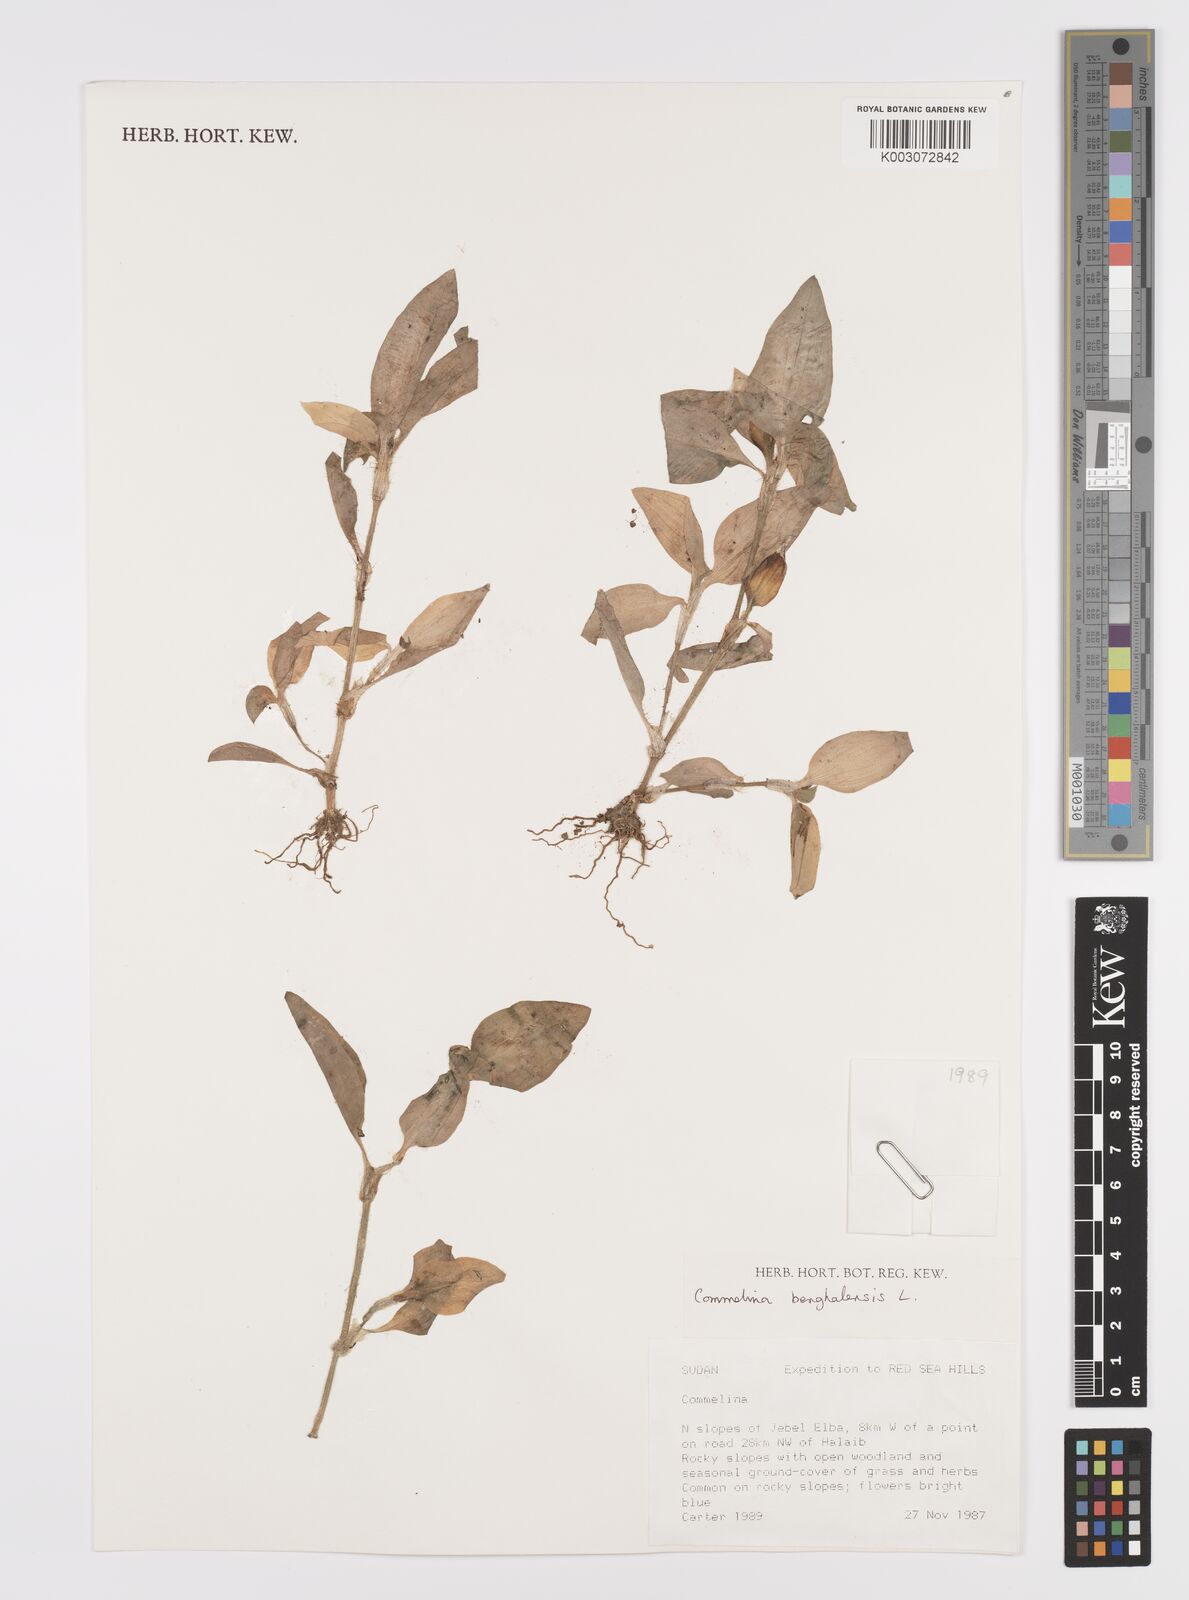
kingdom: Plantae
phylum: Tracheophyta
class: Liliopsida
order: Commelinales
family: Commelinaceae
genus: Commelina
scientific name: Commelina benghalensis
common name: Jio
